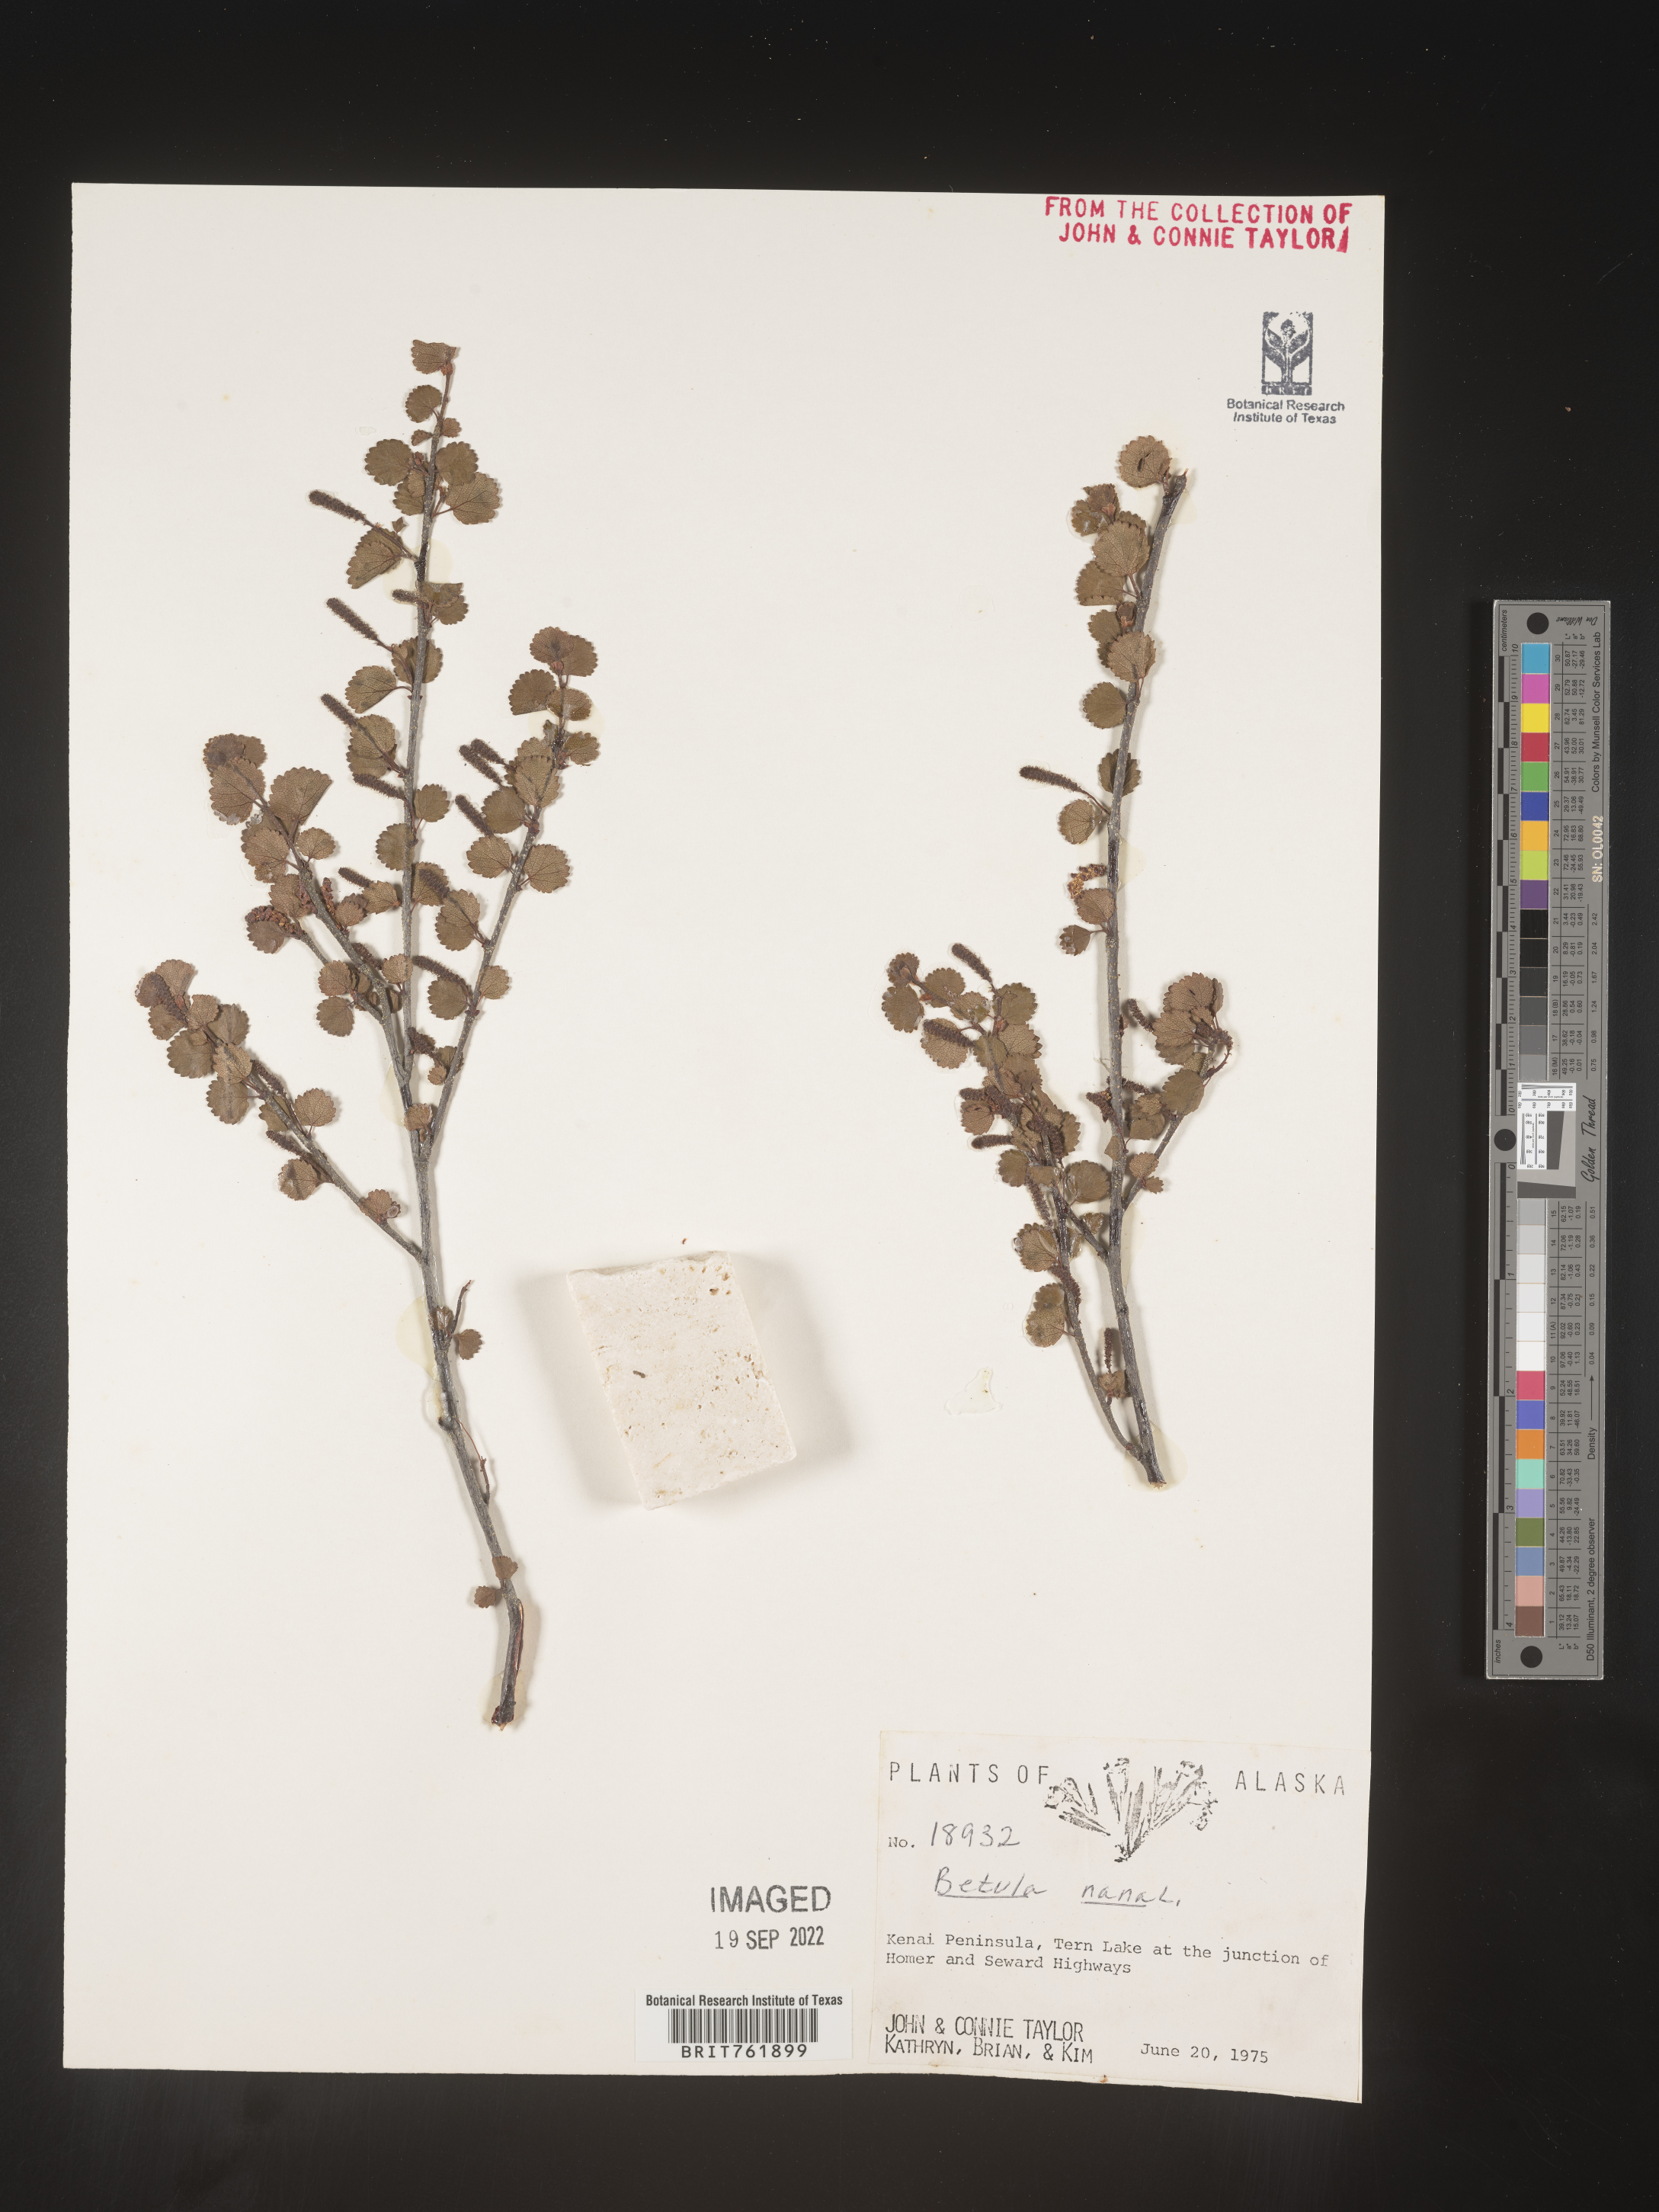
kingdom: Plantae
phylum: Tracheophyta
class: Magnoliopsida
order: Fagales
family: Betulaceae
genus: Betula
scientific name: Betula nana
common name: Arctic dwarf birch
